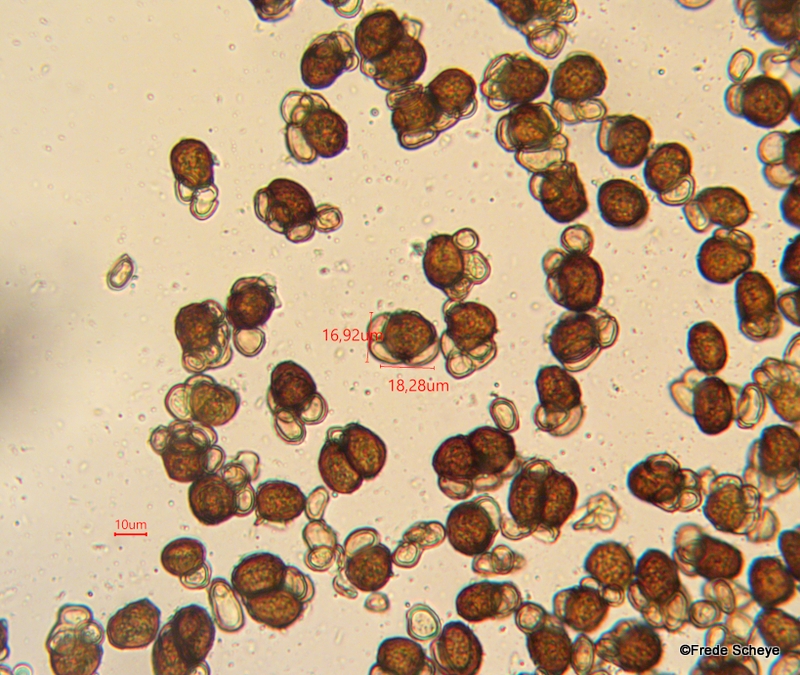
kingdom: Fungi
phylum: Basidiomycota
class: Ustilaginomycetes
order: Urocystidales
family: Urocystidaceae
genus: Urocystis
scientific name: Urocystis anemones
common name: anemone-brand
